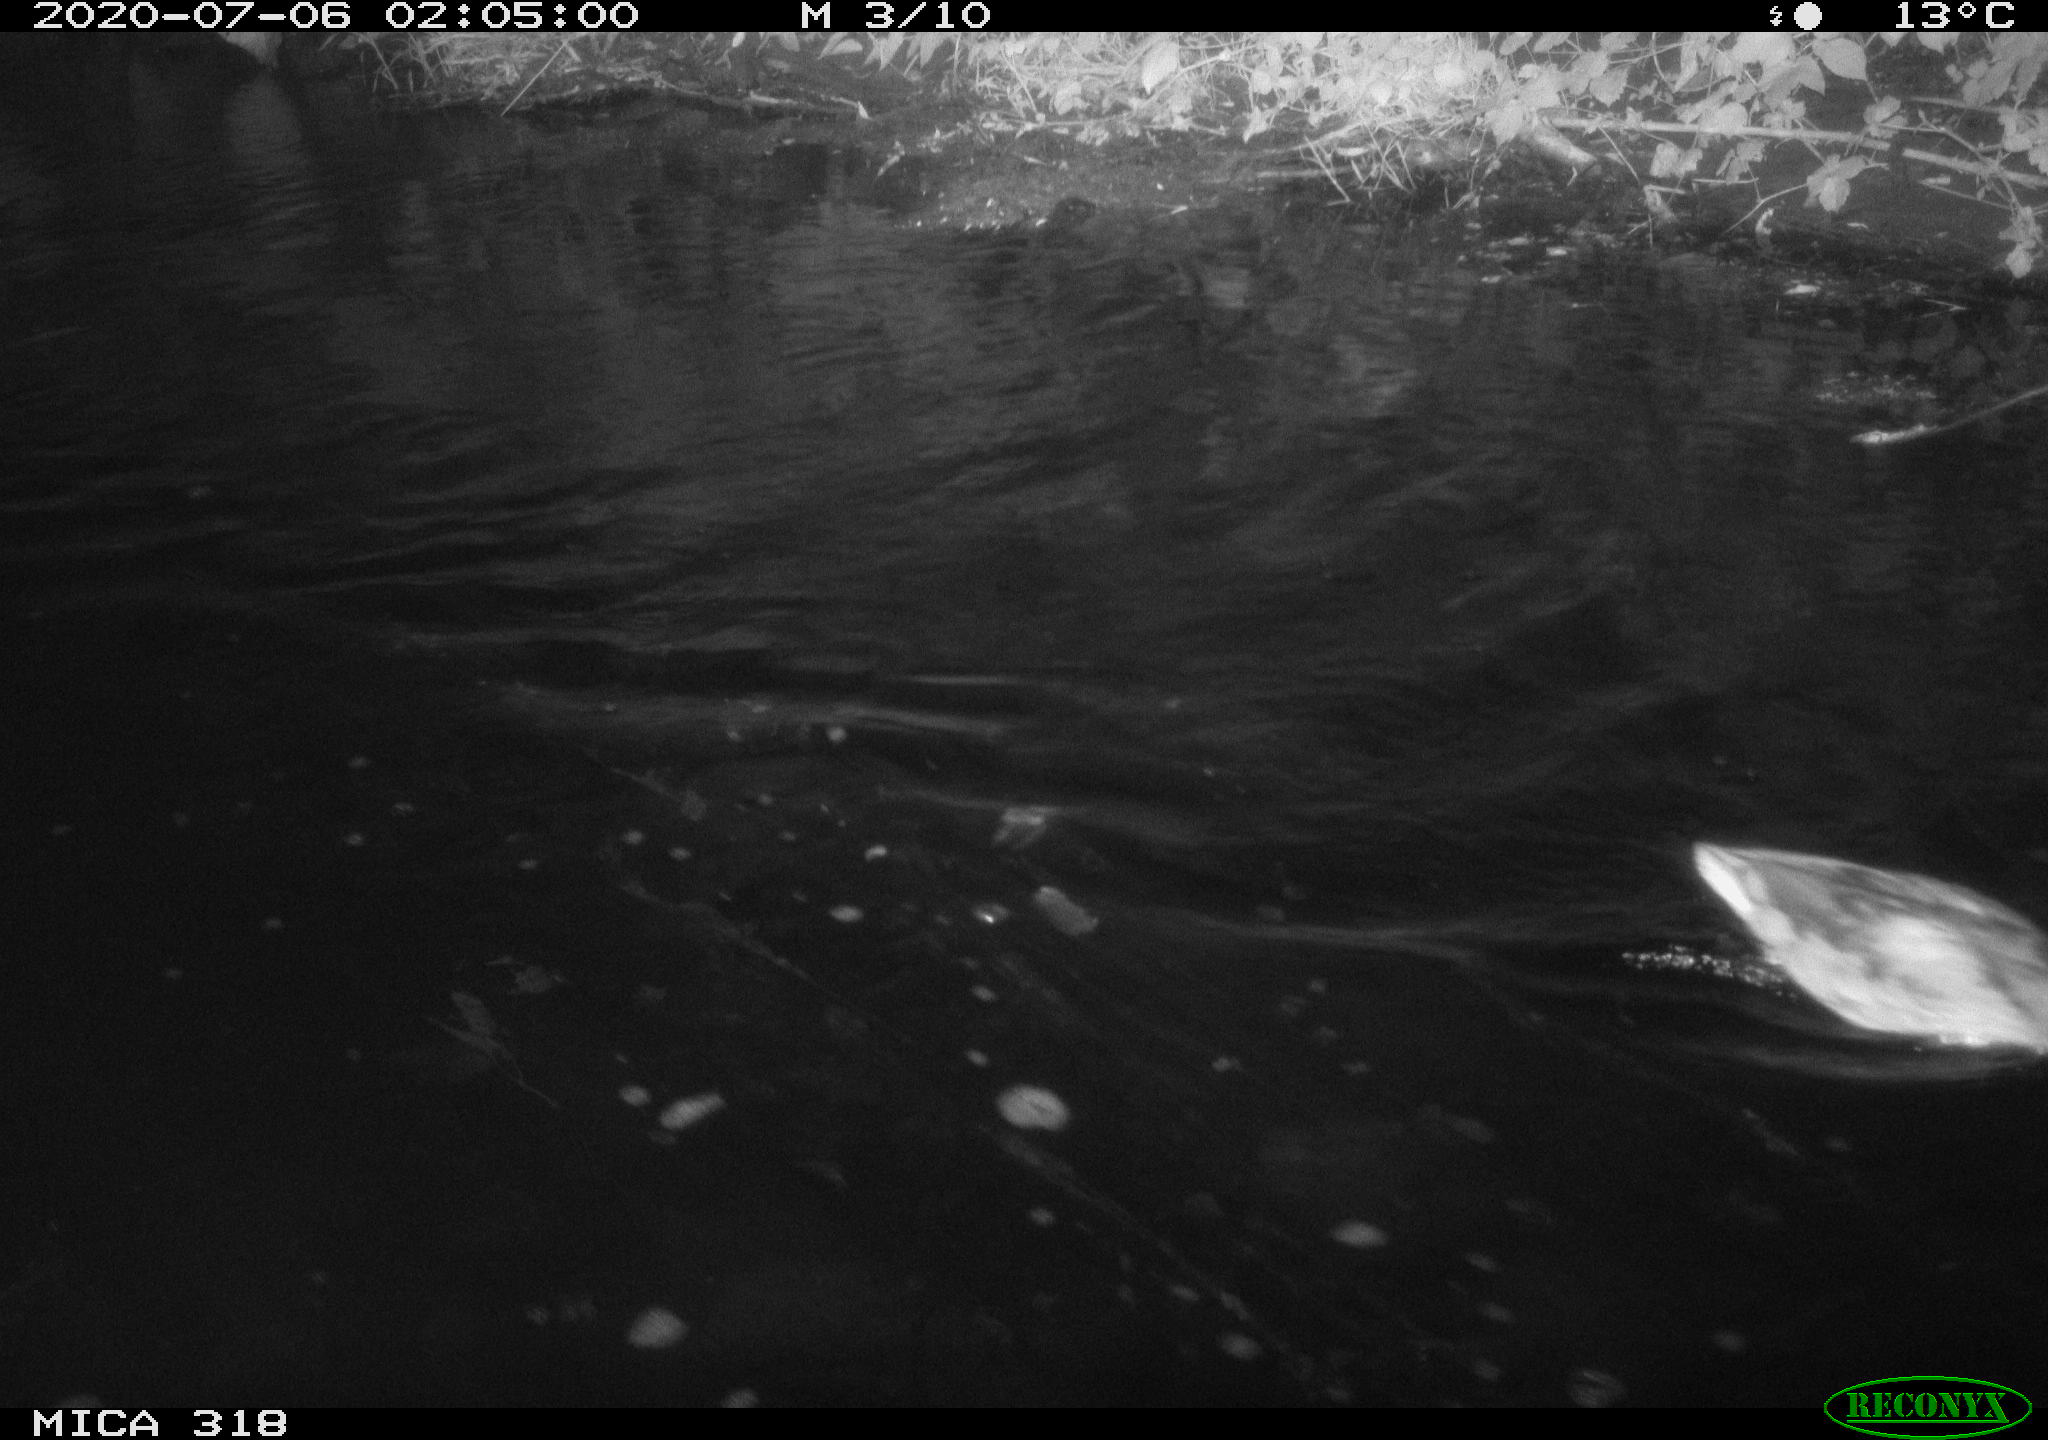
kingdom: Animalia
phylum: Chordata
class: Aves
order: Anseriformes
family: Anatidae
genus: Mareca
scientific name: Mareca strepera
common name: Gadwall
